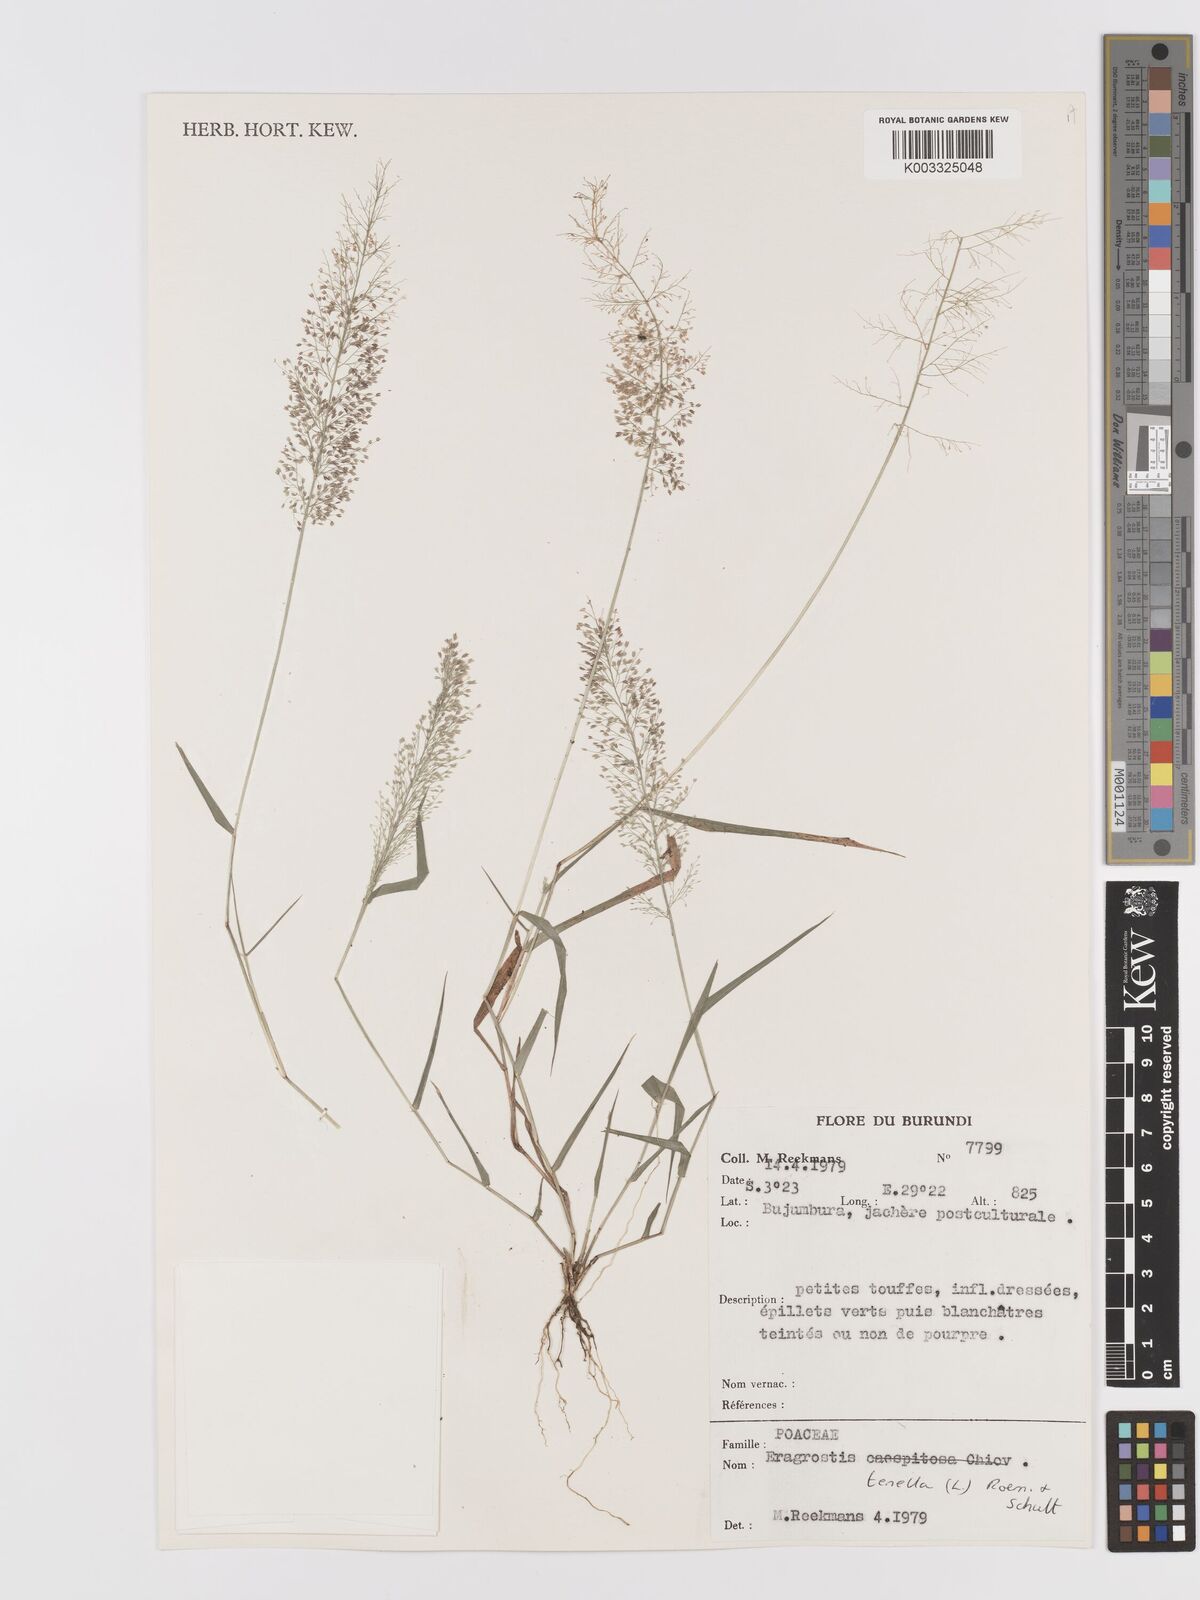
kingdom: Plantae
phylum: Tracheophyta
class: Liliopsida
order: Poales
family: Poaceae
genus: Eragrostis
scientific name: Eragrostis tenella
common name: Japanese lovegrass
